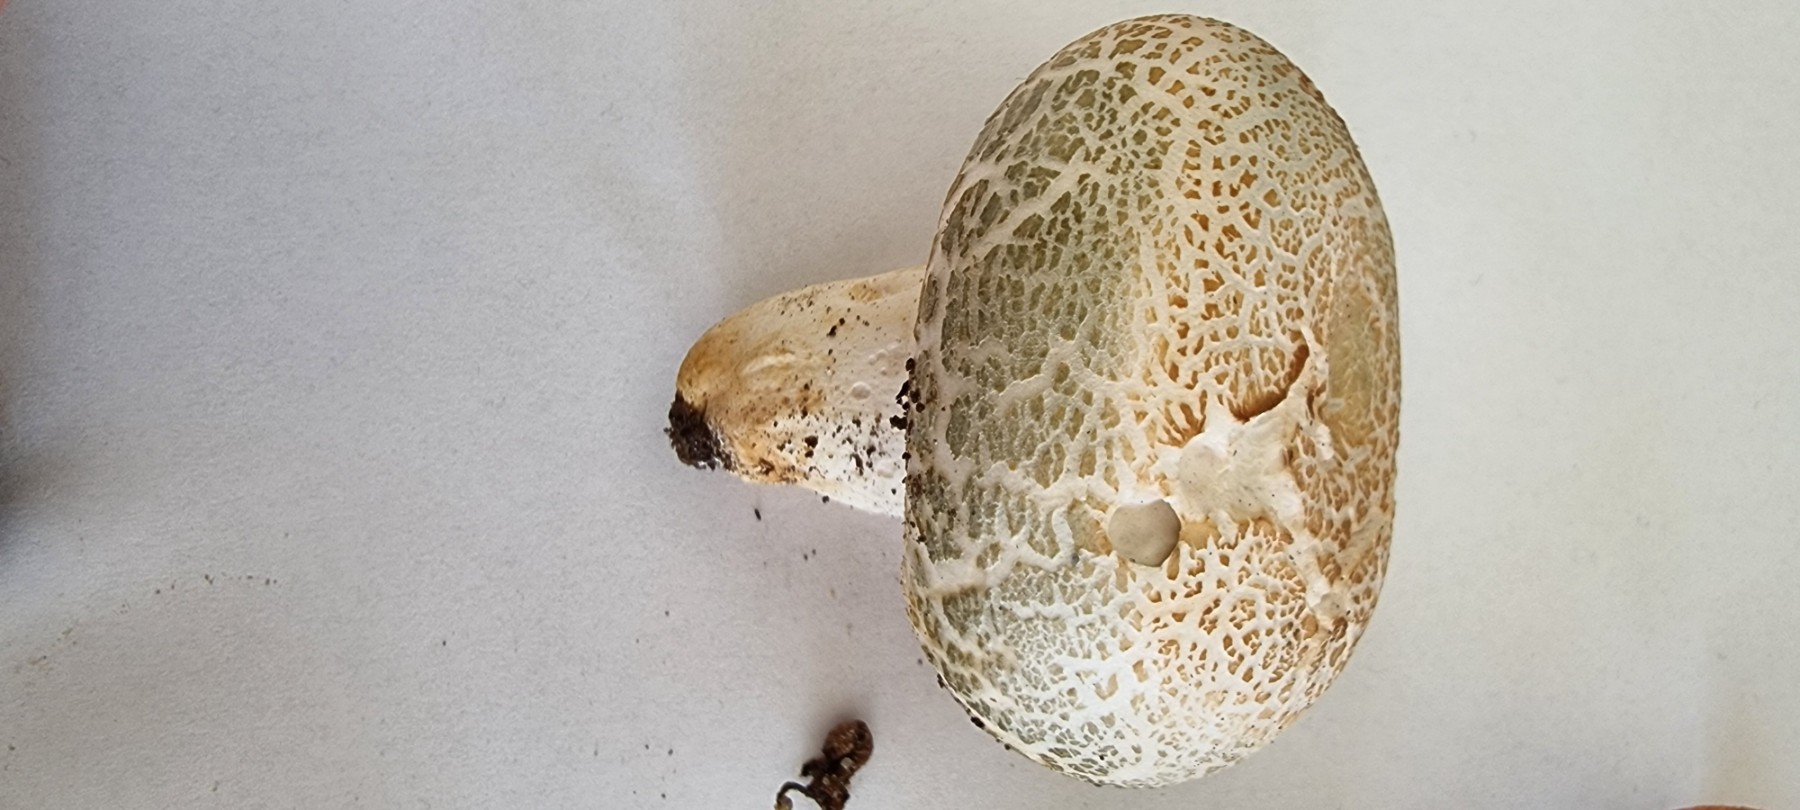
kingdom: Fungi
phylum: Basidiomycota
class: Agaricomycetes
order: Russulales
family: Russulaceae
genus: Russula
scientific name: Russula virescens
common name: spanskgrøn skørhat
